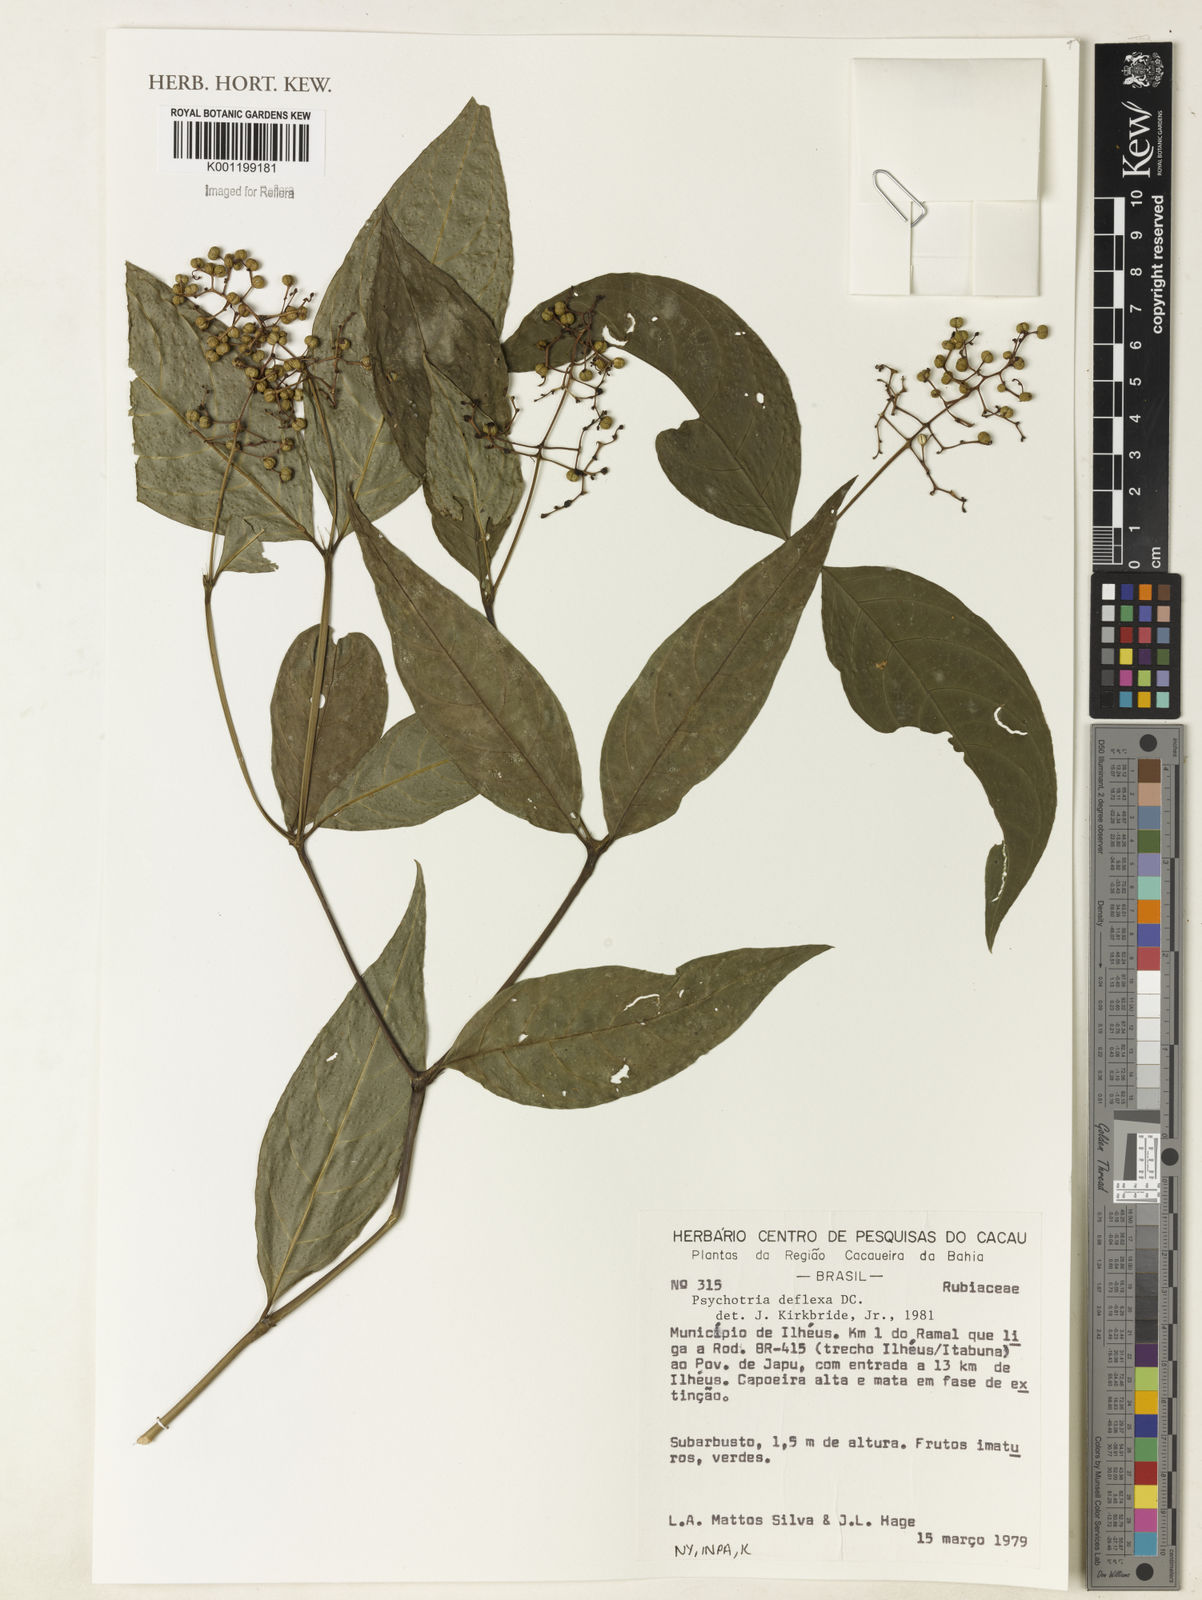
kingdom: Plantae
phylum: Tracheophyta
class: Magnoliopsida
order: Gentianales
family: Rubiaceae
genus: Palicourea
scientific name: Palicourea deflexa
